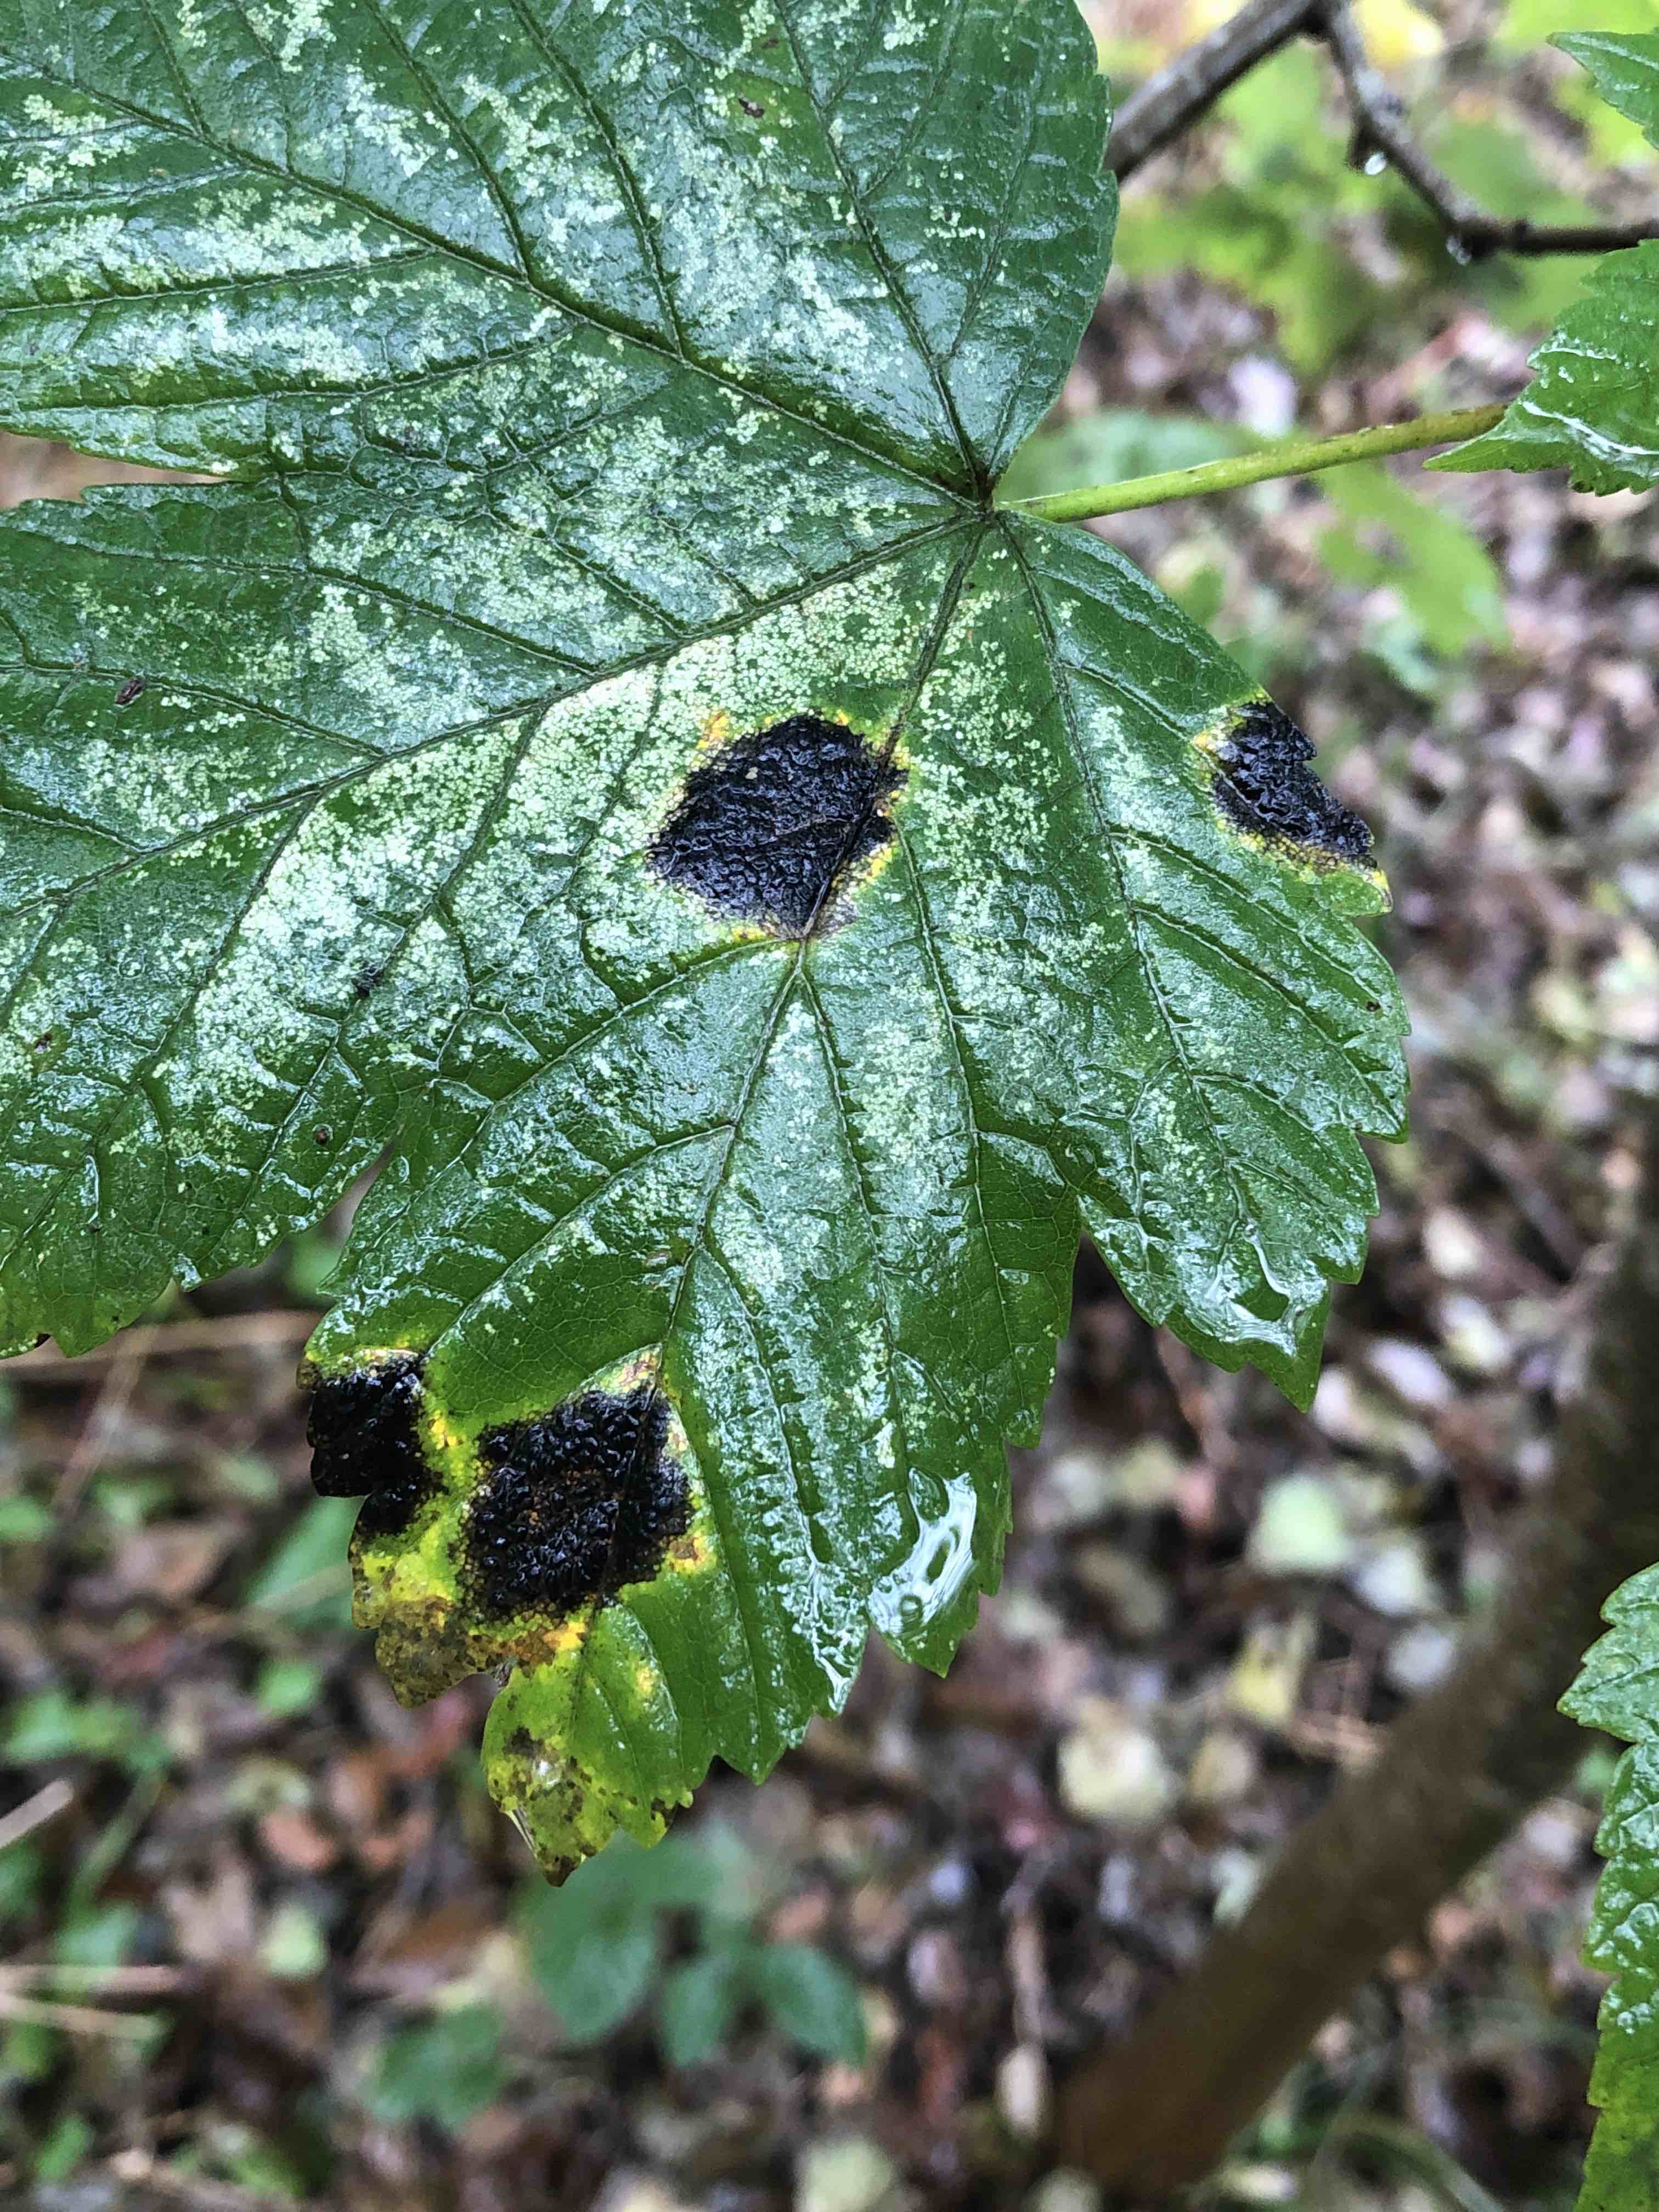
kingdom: Fungi
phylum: Ascomycota
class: Leotiomycetes
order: Rhytismatales
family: Rhytismataceae
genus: Rhytisma
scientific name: Rhytisma acerinum
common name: ahorn-rynkeplet
